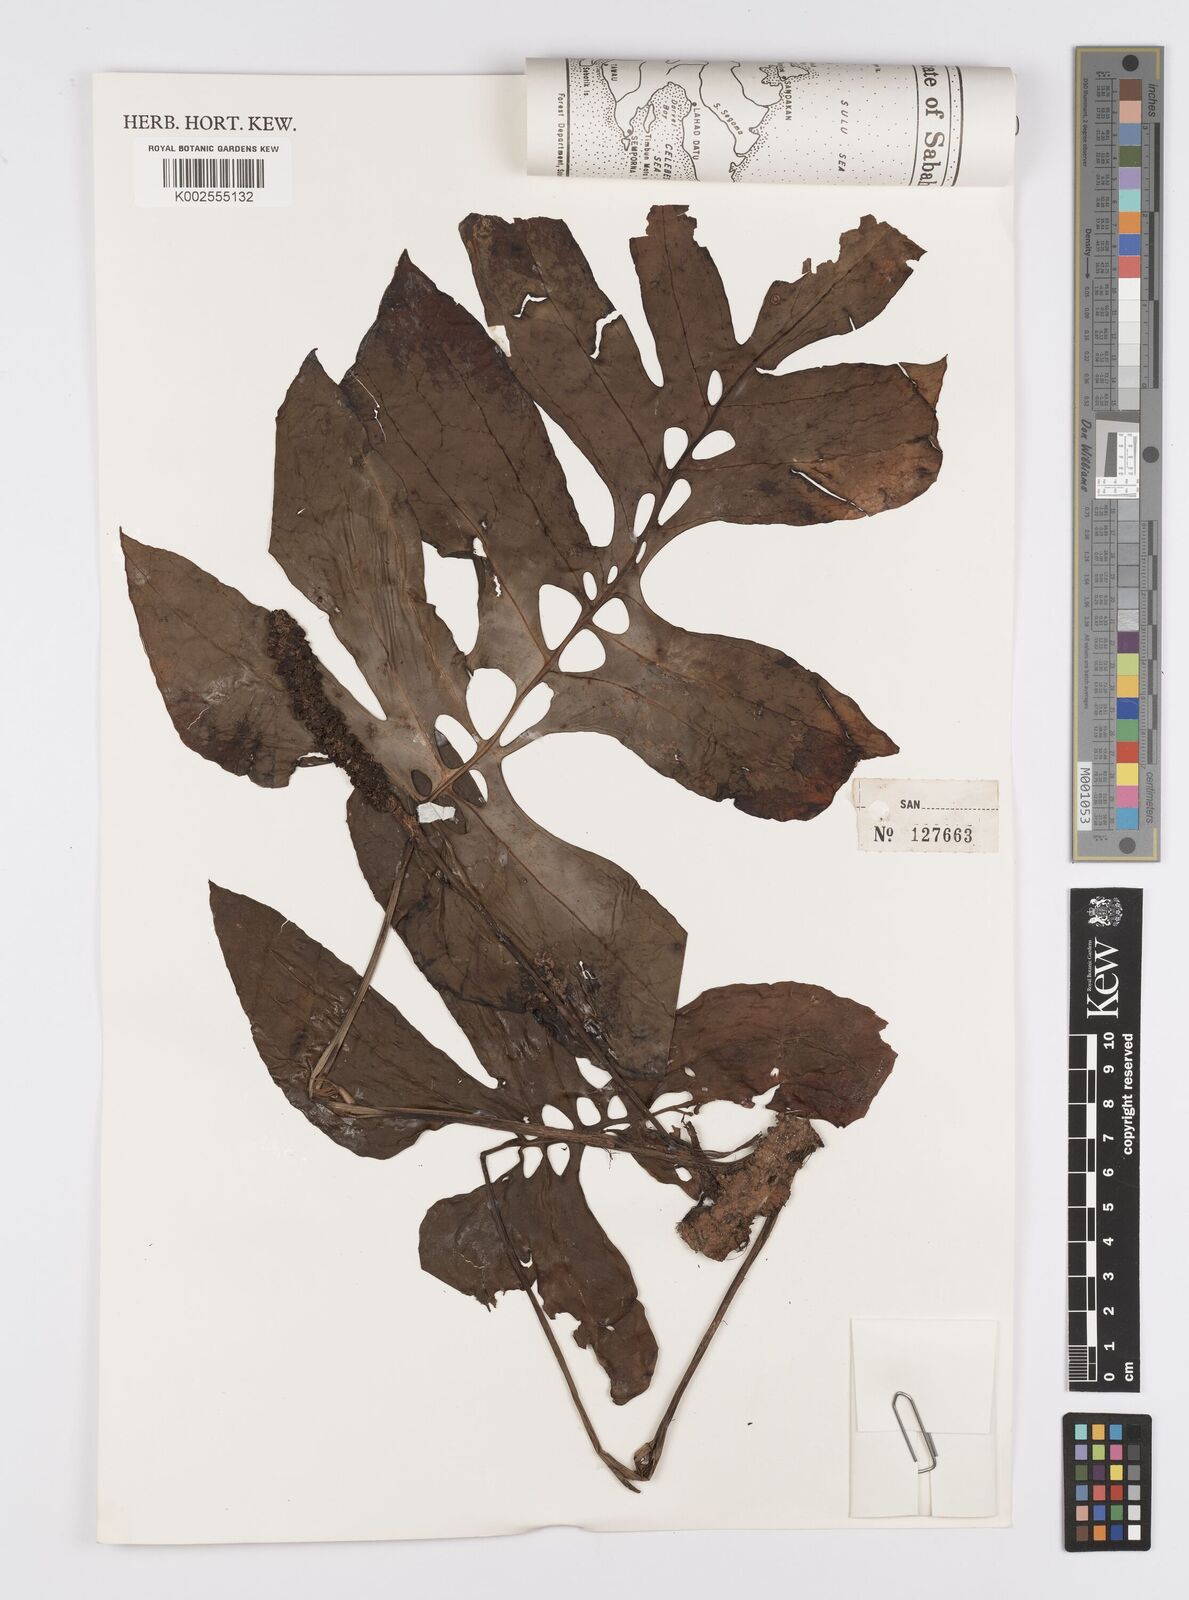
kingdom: Plantae
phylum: Tracheophyta
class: Liliopsida
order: Alismatales
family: Araceae
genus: Amydrium
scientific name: Amydrium medium
